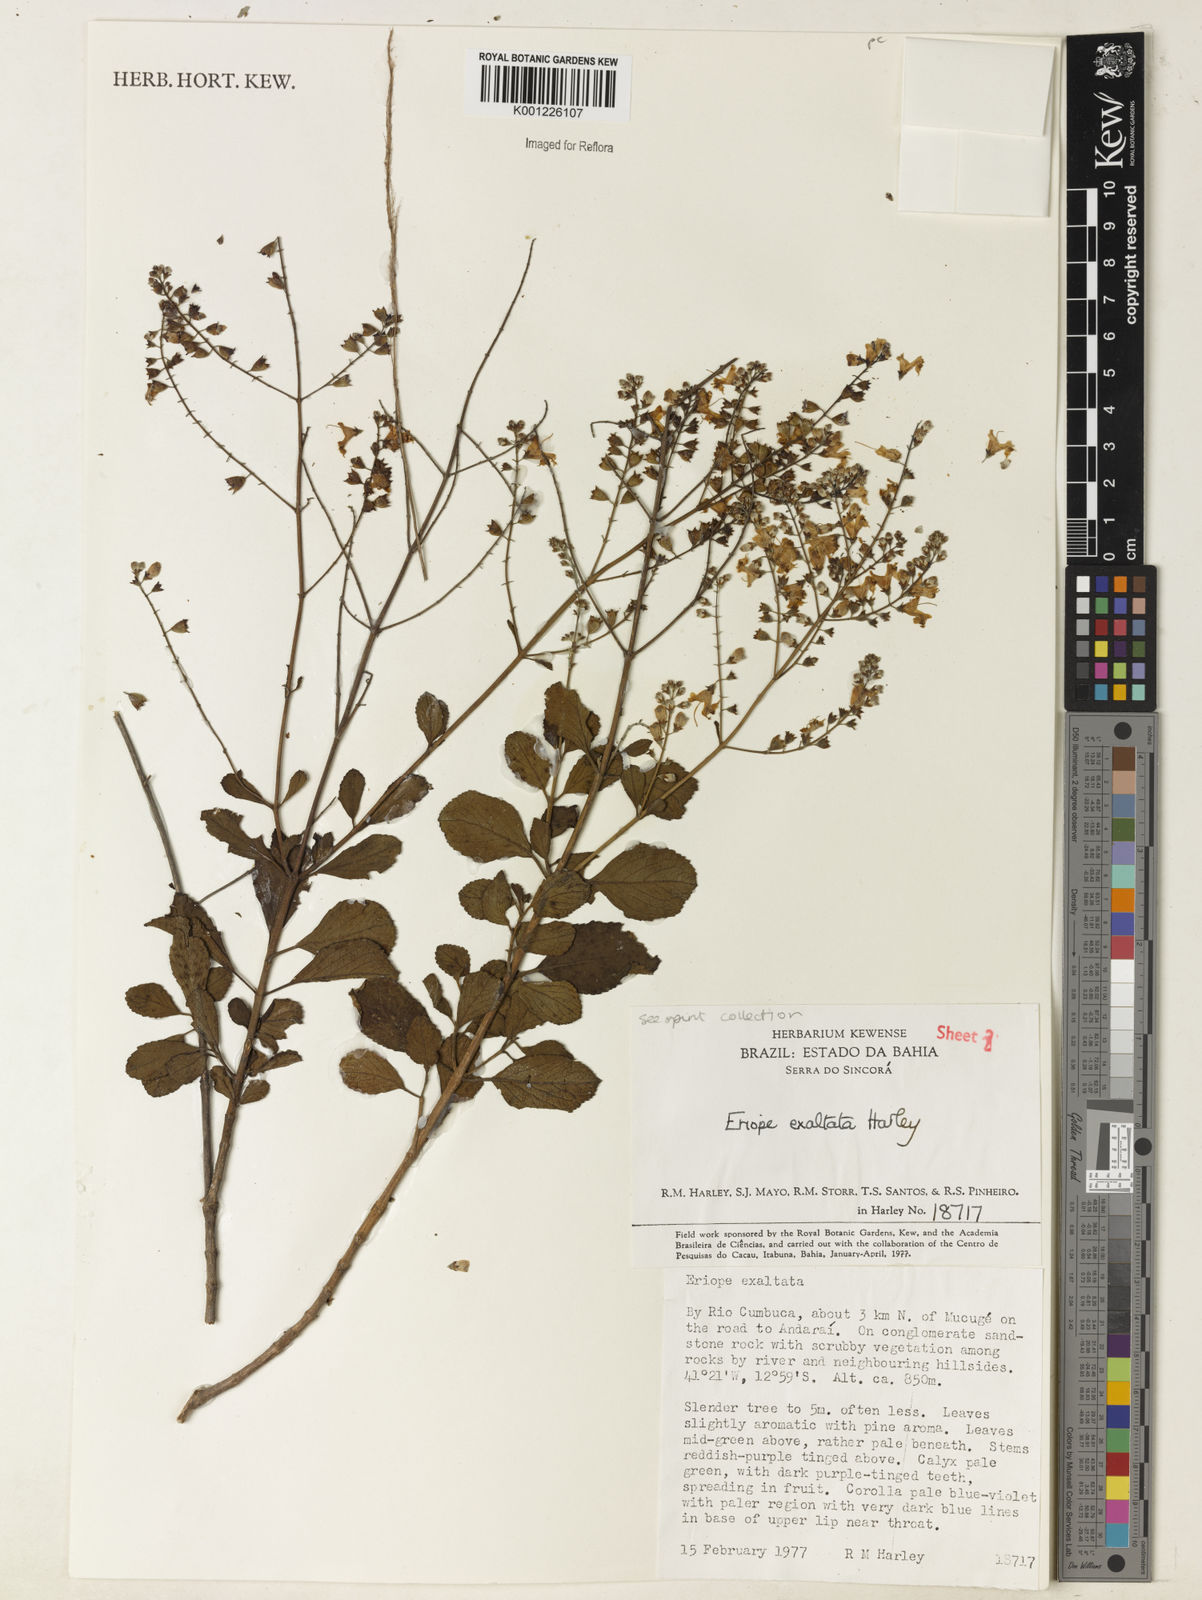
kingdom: Plantae
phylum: Tracheophyta
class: Magnoliopsida
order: Lamiales
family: Lamiaceae
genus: Eriope
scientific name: Eriope exaltata
